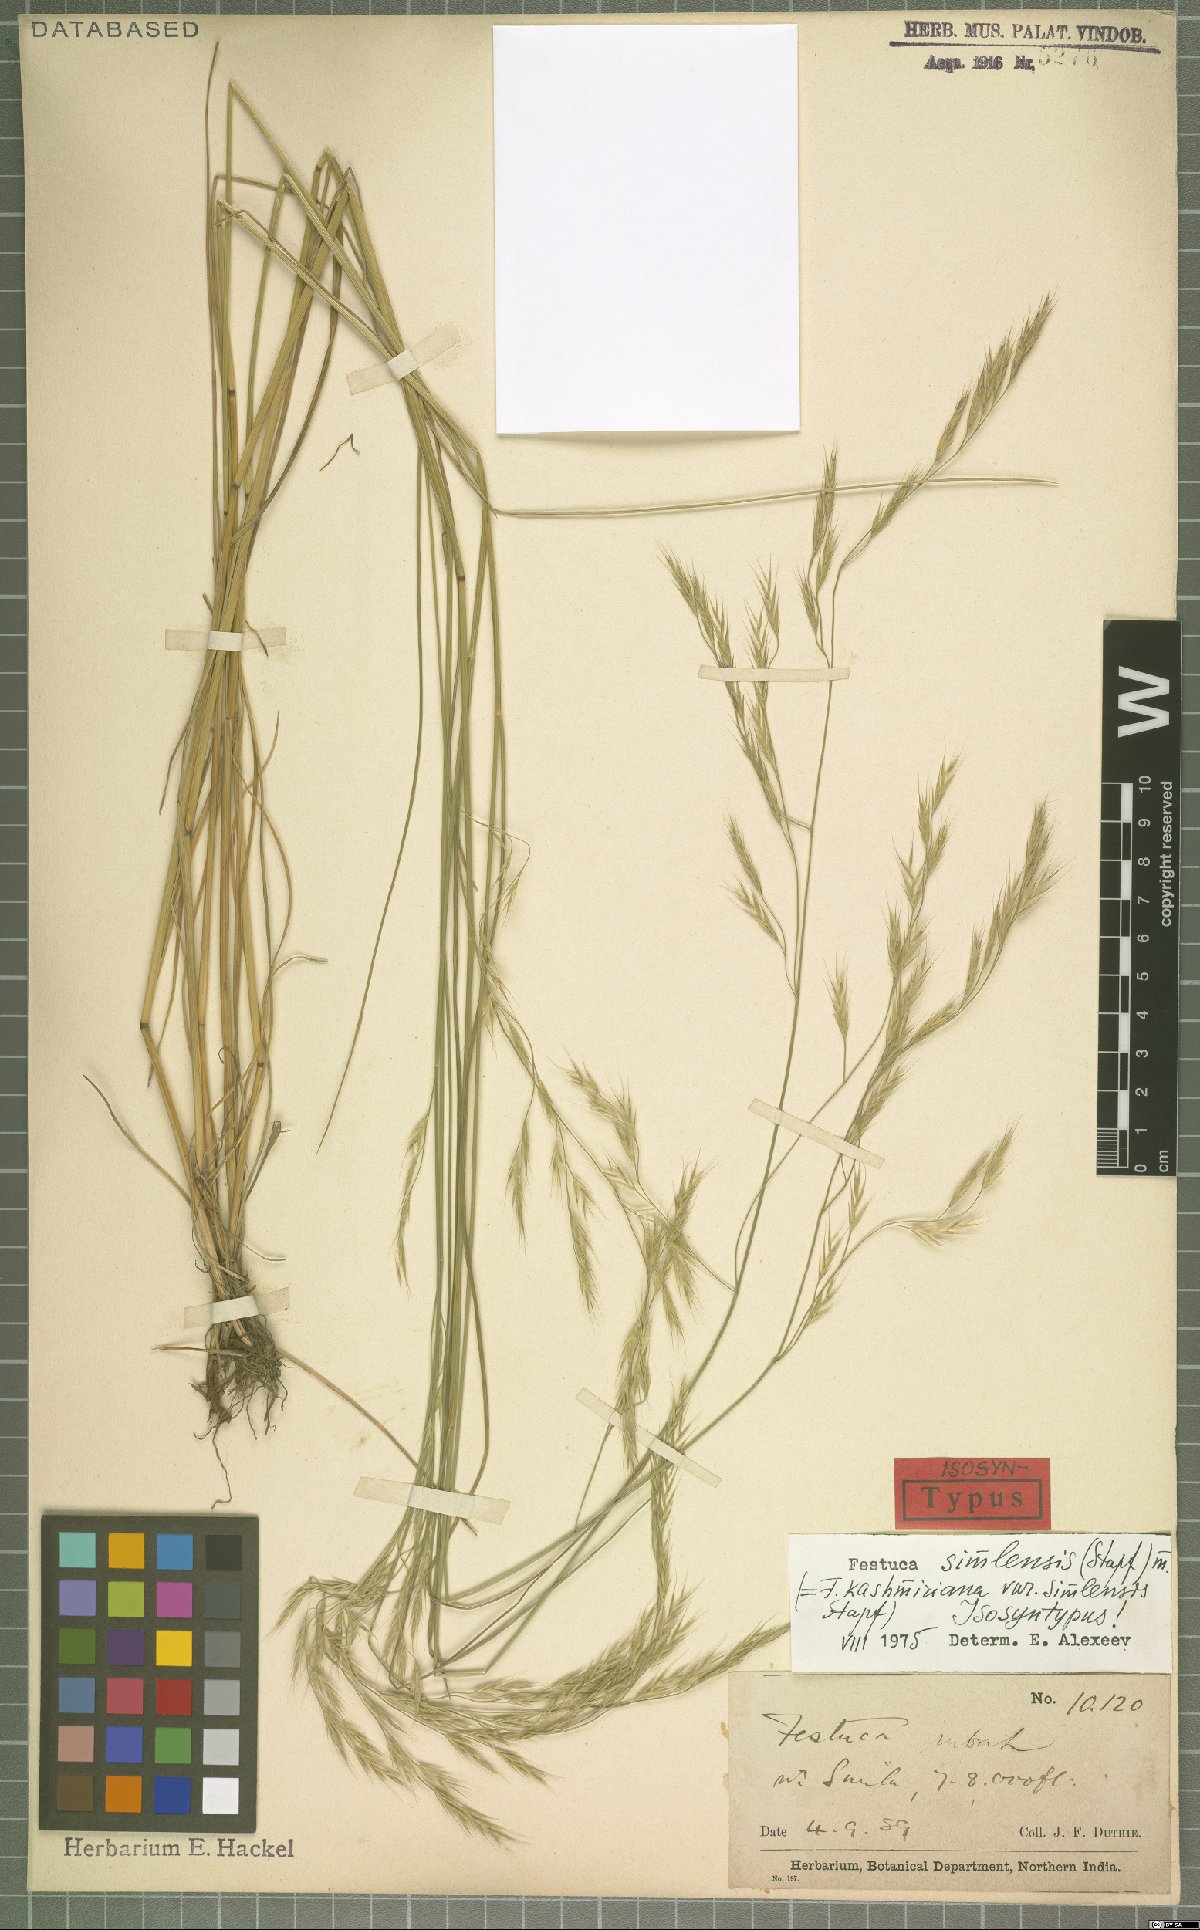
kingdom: Plantae
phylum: Tracheophyta
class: Liliopsida
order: Poales
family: Poaceae
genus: Festuca
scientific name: Festuca simlensis
